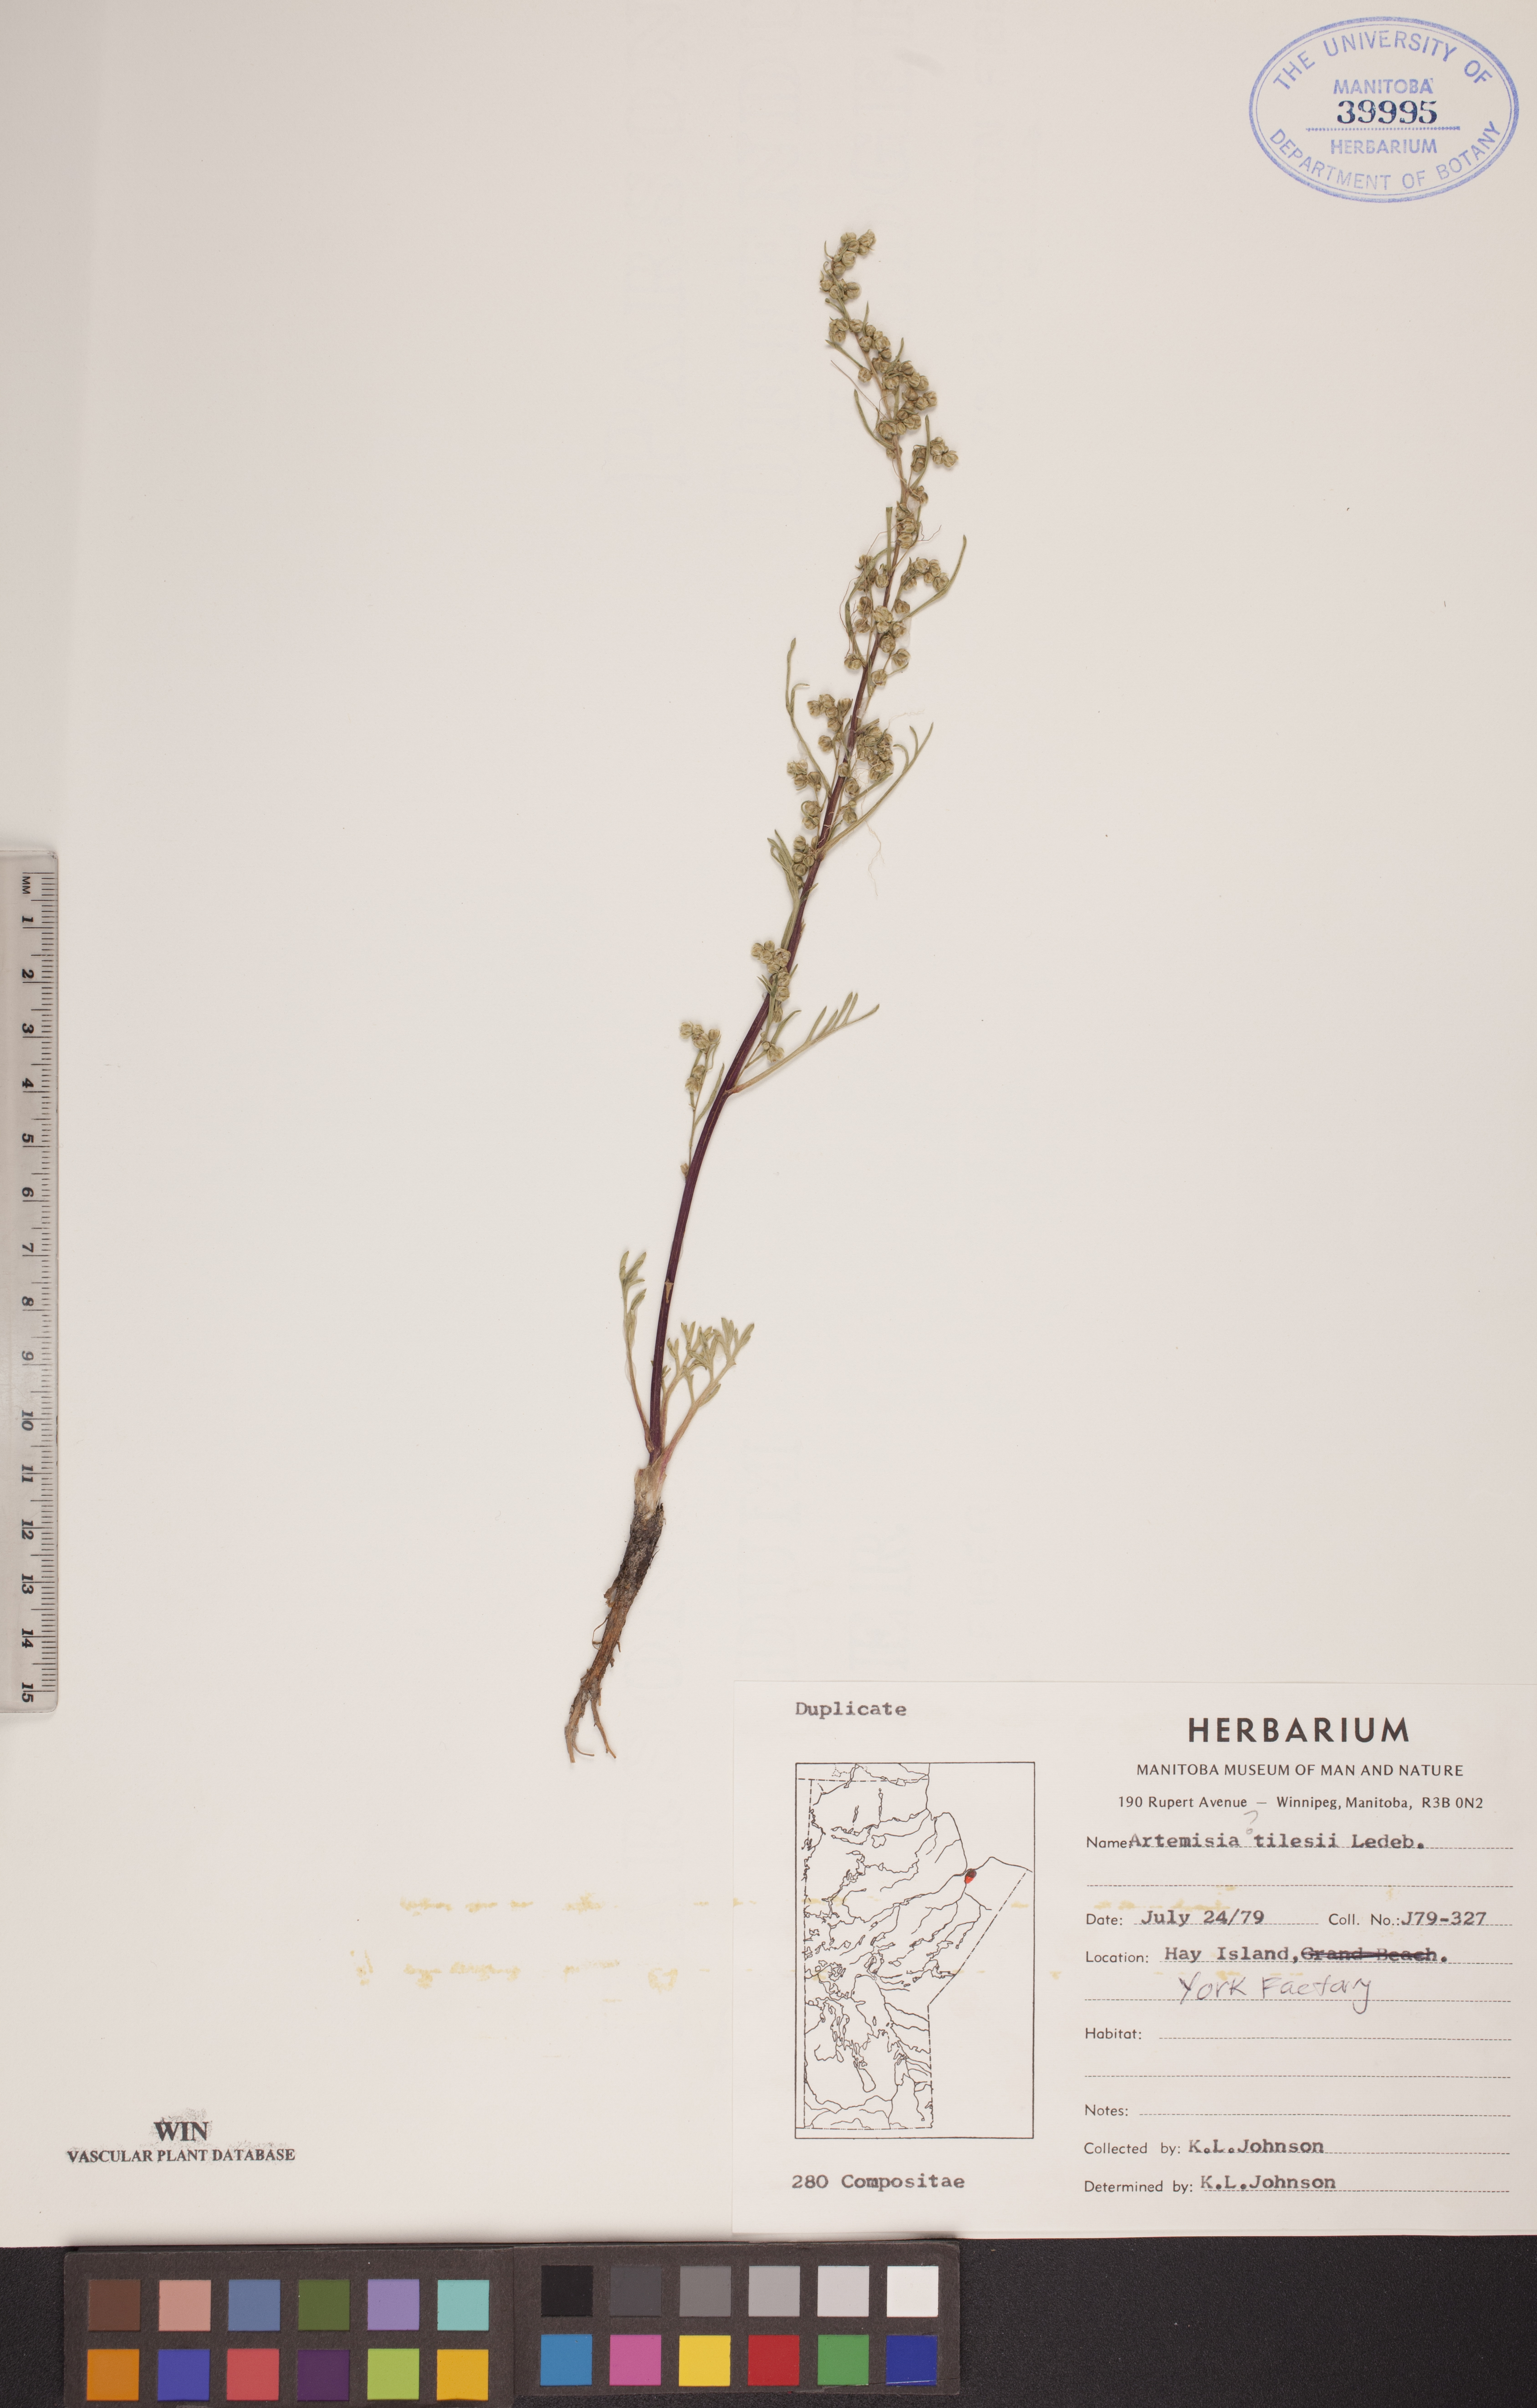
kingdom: Plantae
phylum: Tracheophyta
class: Magnoliopsida
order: Asterales
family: Asteraceae
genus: Artemisia
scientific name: Artemisia tilesii
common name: Aleutian mugwort
